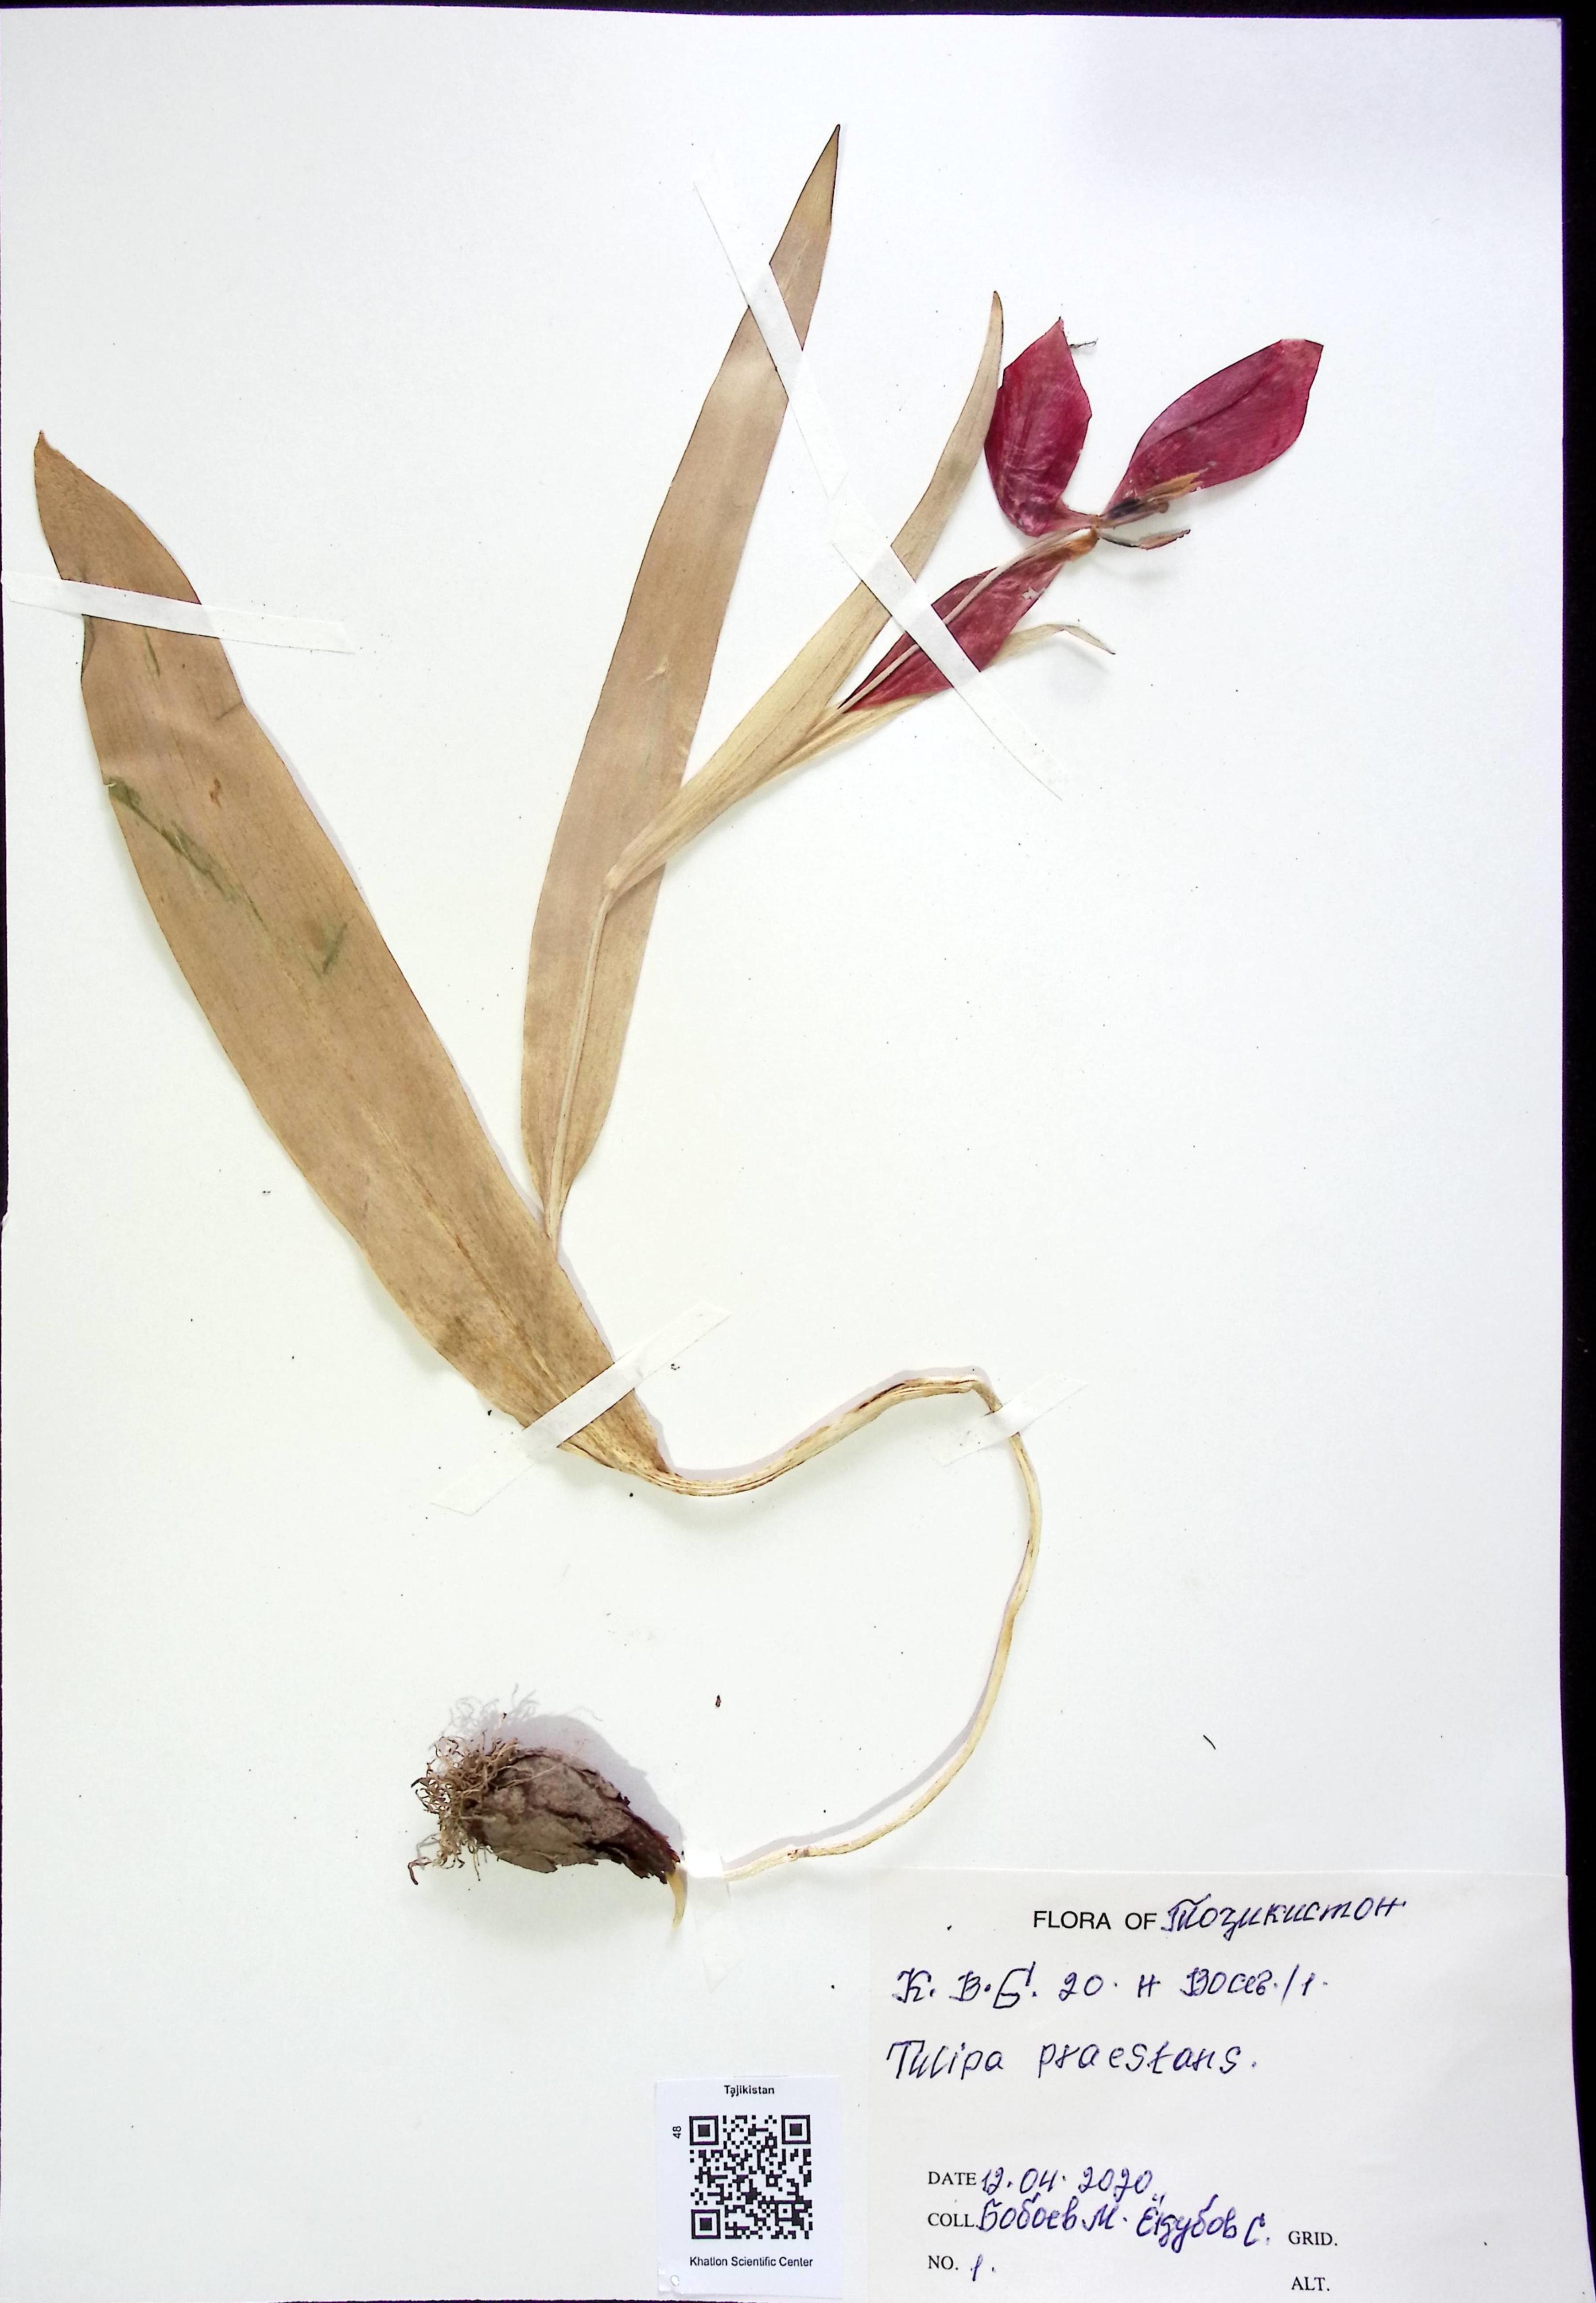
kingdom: Plantae
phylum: Tracheophyta
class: Liliopsida
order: Liliales
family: Liliaceae
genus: Tulipa
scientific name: Tulipa praestans
